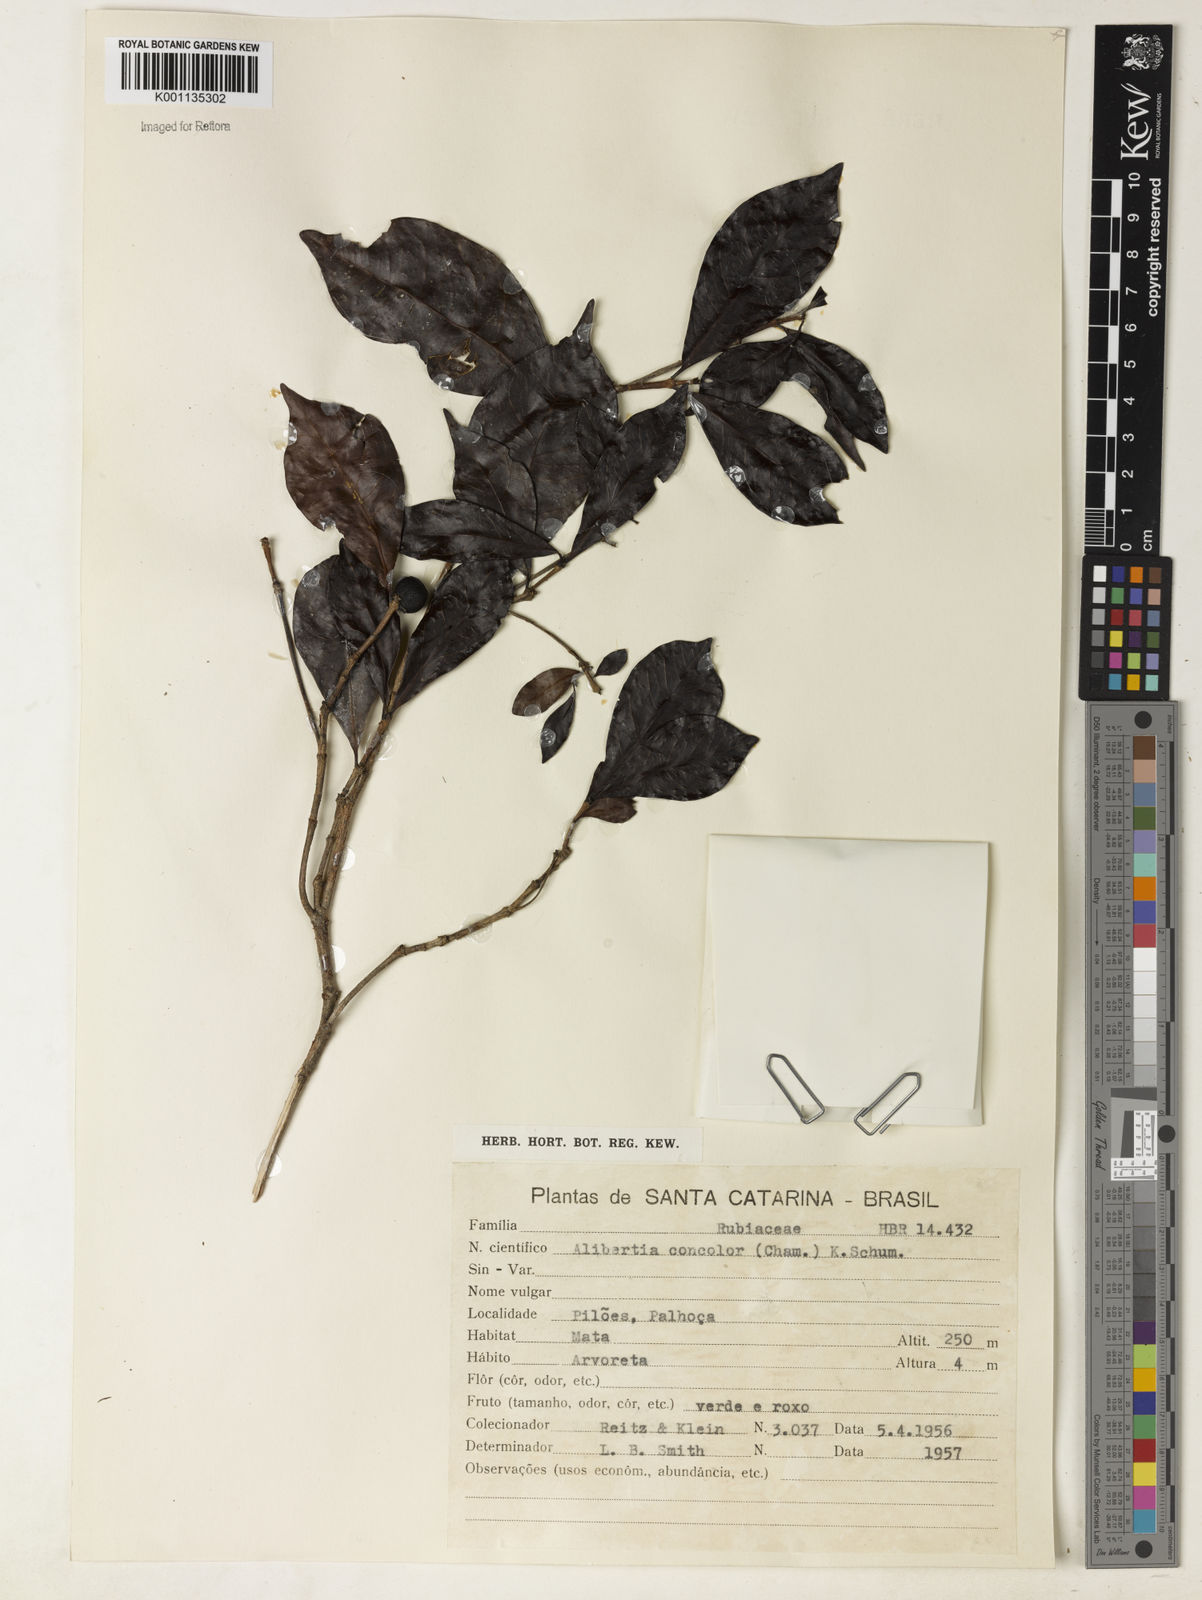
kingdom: Plantae
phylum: Tracheophyta
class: Magnoliopsida
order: Gentianales
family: Rubiaceae
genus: Cordiera
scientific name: Cordiera concolor
